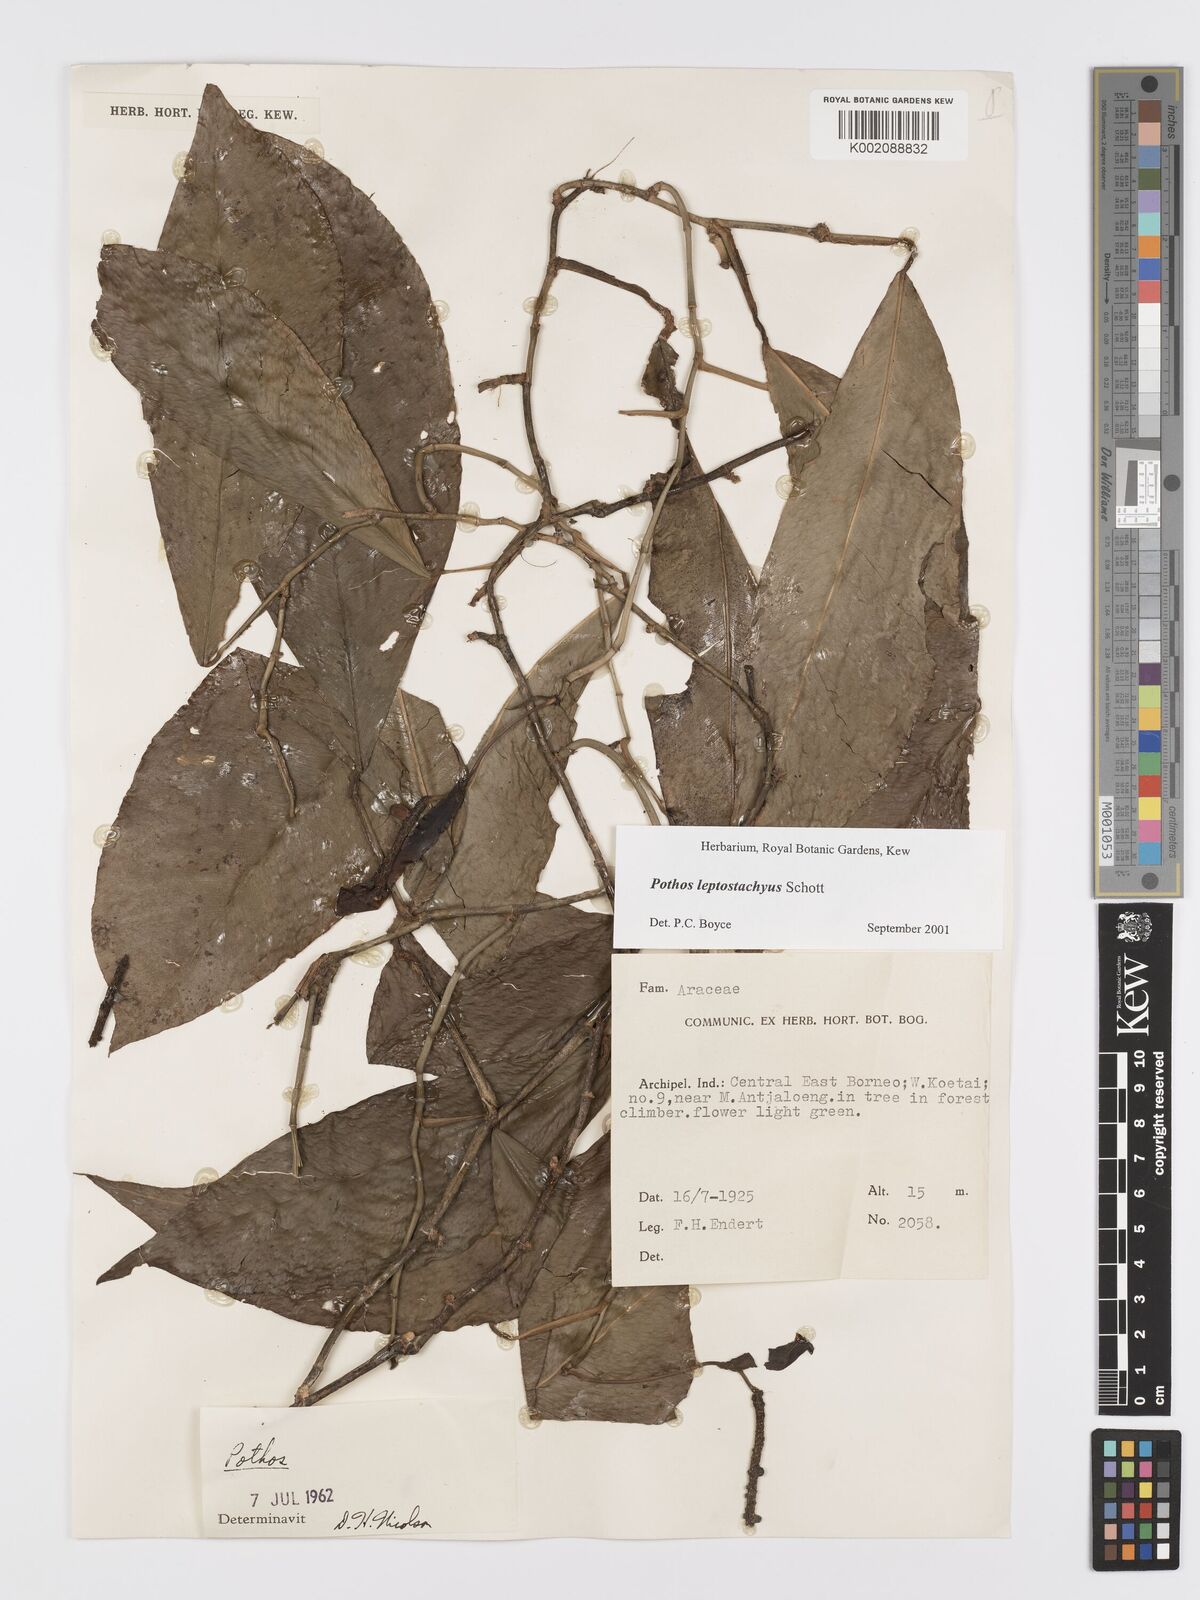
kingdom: Plantae
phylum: Tracheophyta
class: Liliopsida
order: Alismatales
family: Araceae
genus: Pothos
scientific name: Pothos leptostachyus
